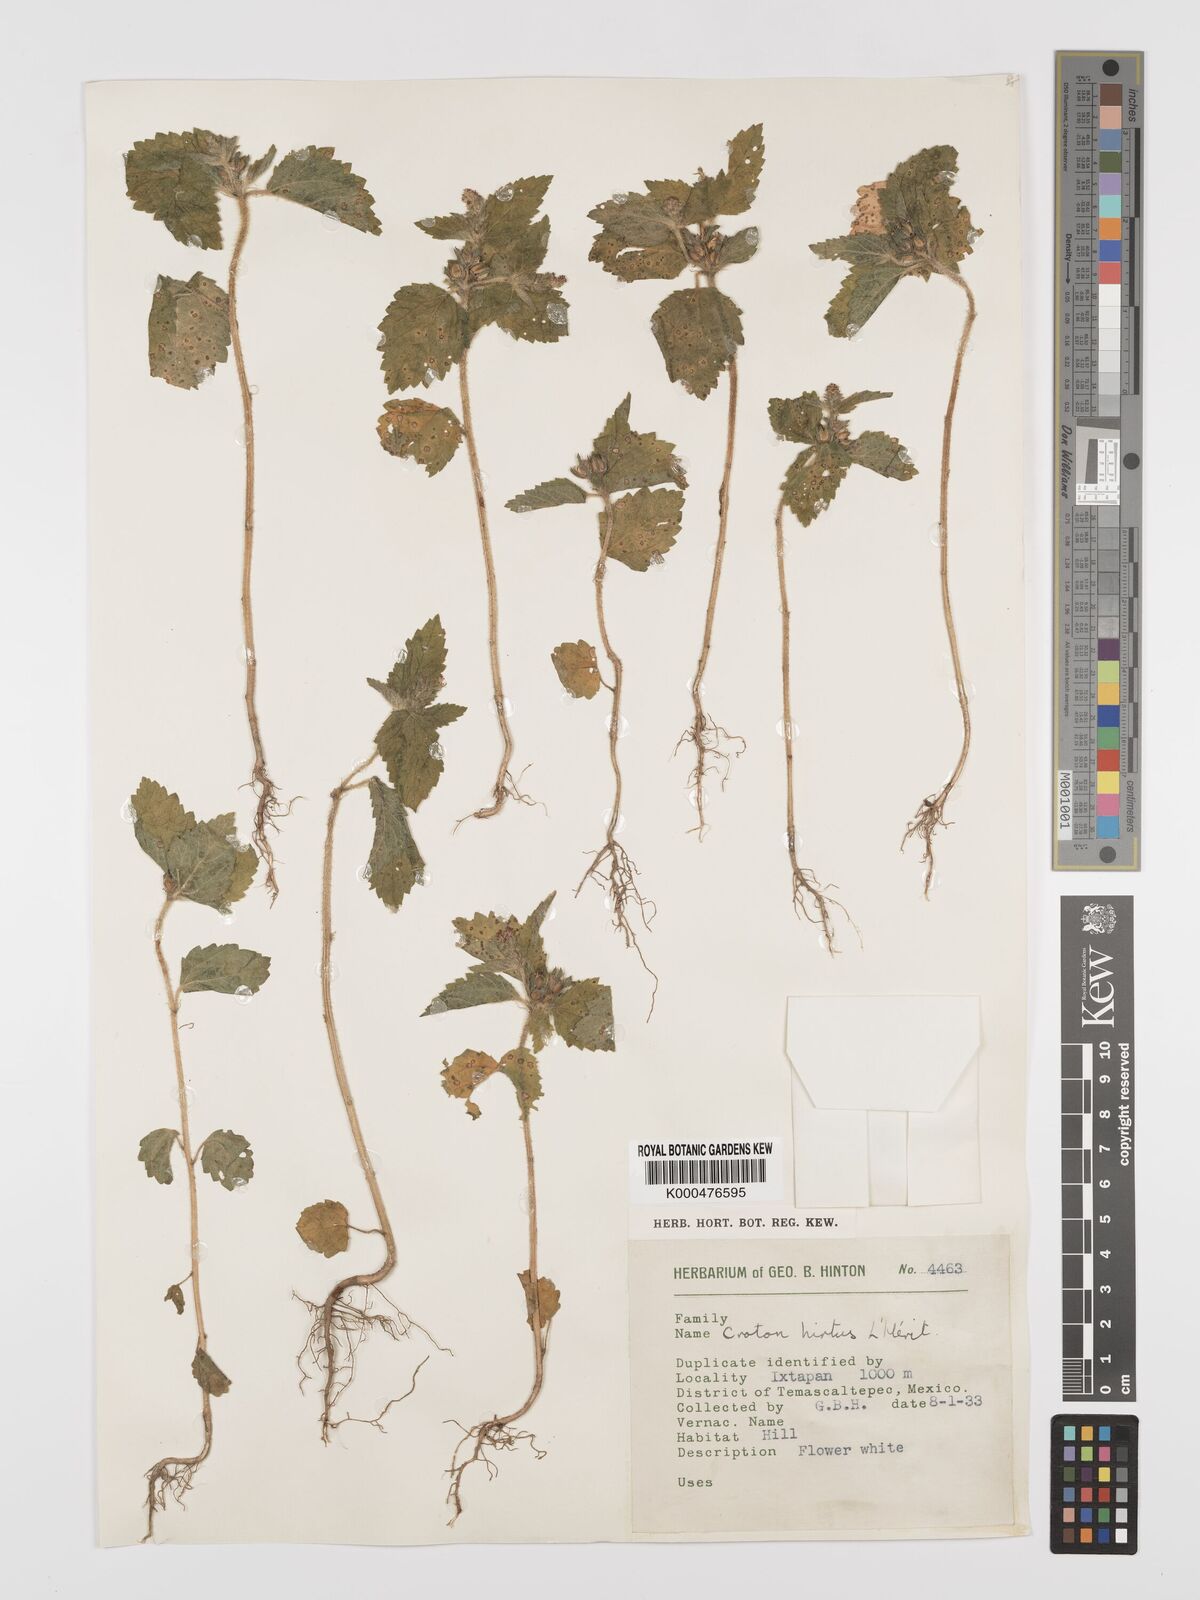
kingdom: Plantae
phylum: Tracheophyta
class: Magnoliopsida
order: Malpighiales
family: Euphorbiaceae
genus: Croton
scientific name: Croton
